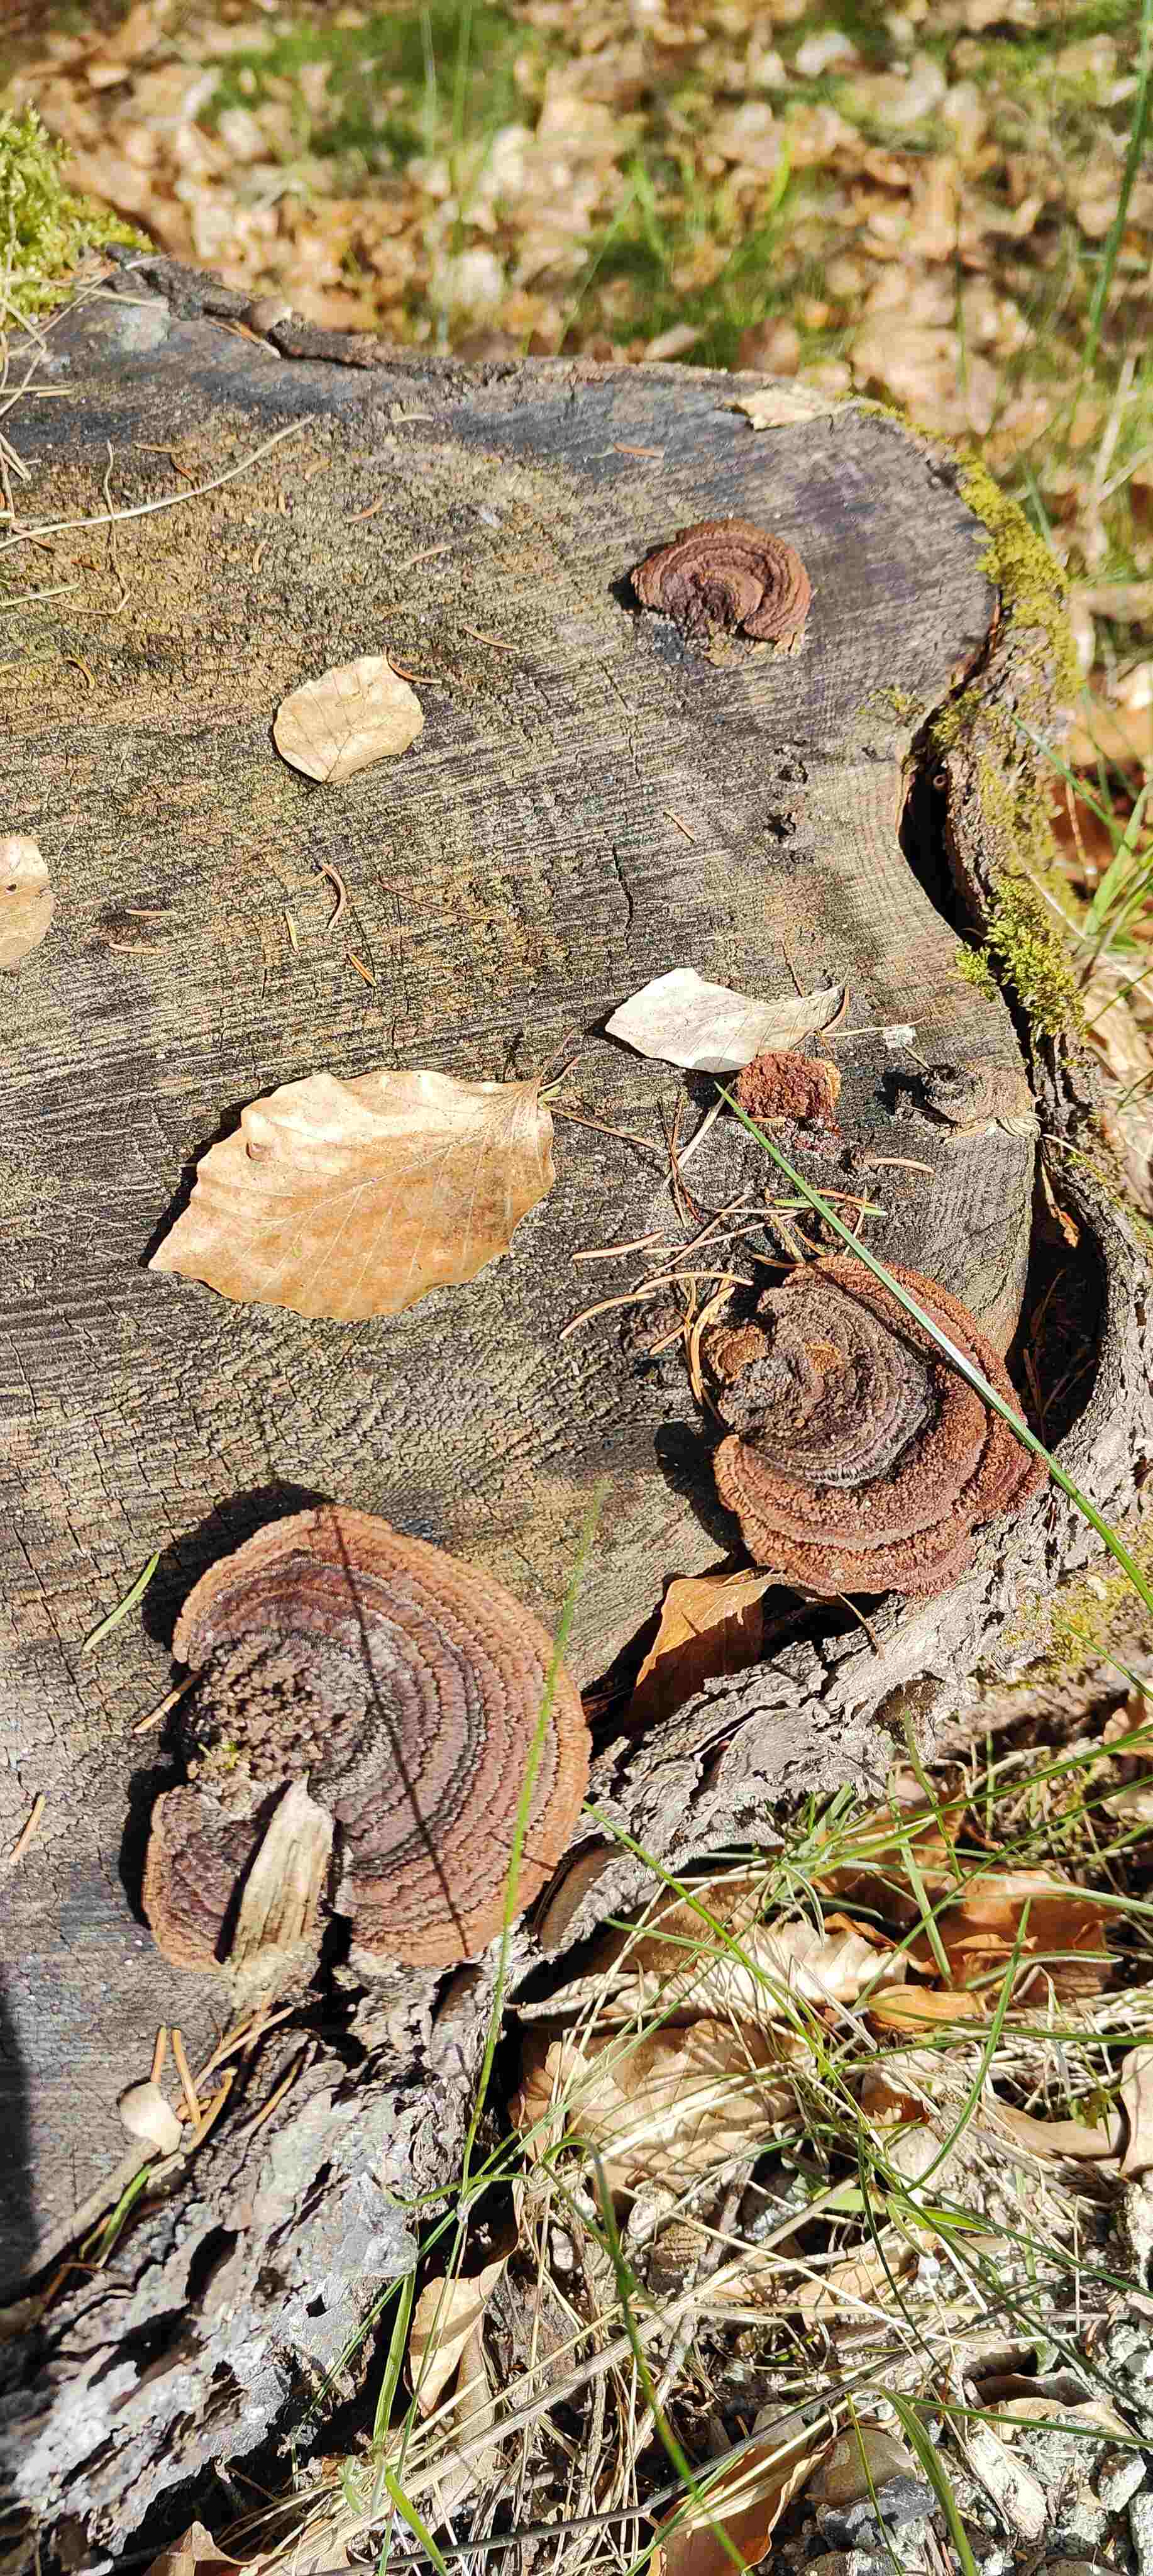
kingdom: Fungi
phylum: Basidiomycota
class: Agaricomycetes
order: Gloeophyllales
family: Gloeophyllaceae
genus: Gloeophyllum
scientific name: Gloeophyllum sepiarium
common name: fyrre-korkhat
